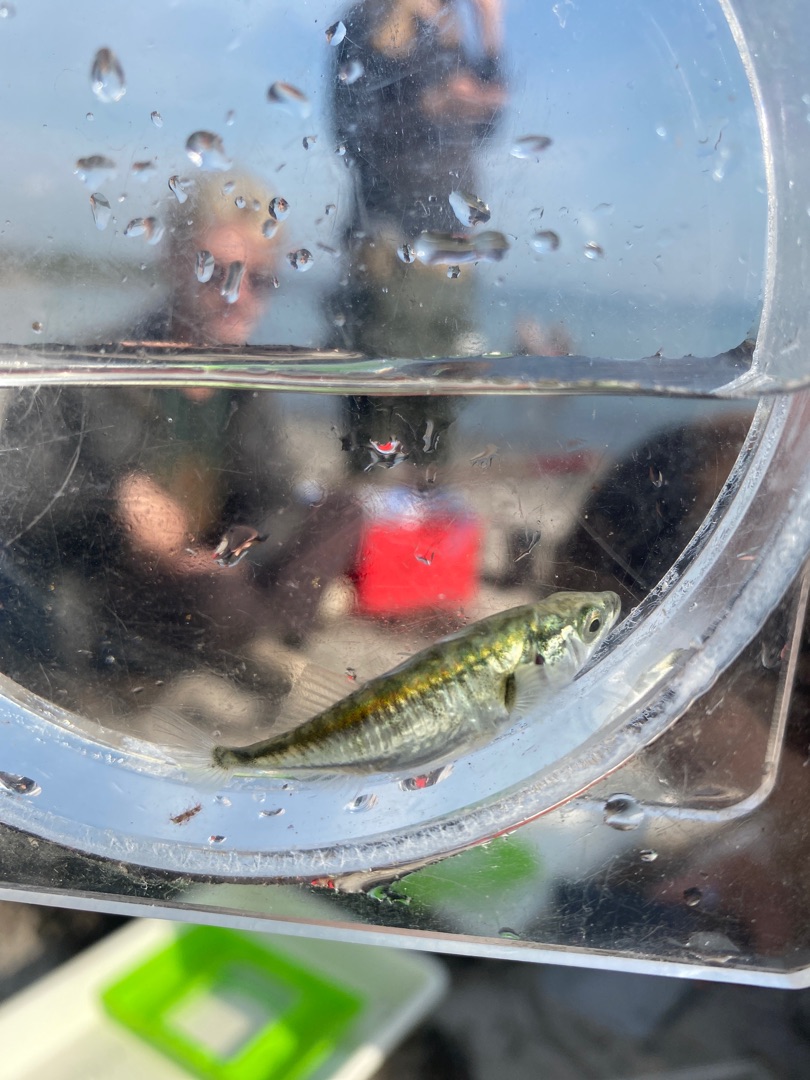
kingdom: Animalia
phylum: Chordata
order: Gasterosteiformes
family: Gasterosteidae
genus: Gasterosteus
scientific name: Gasterosteus aculeatus
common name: Trepigget hundestejle
